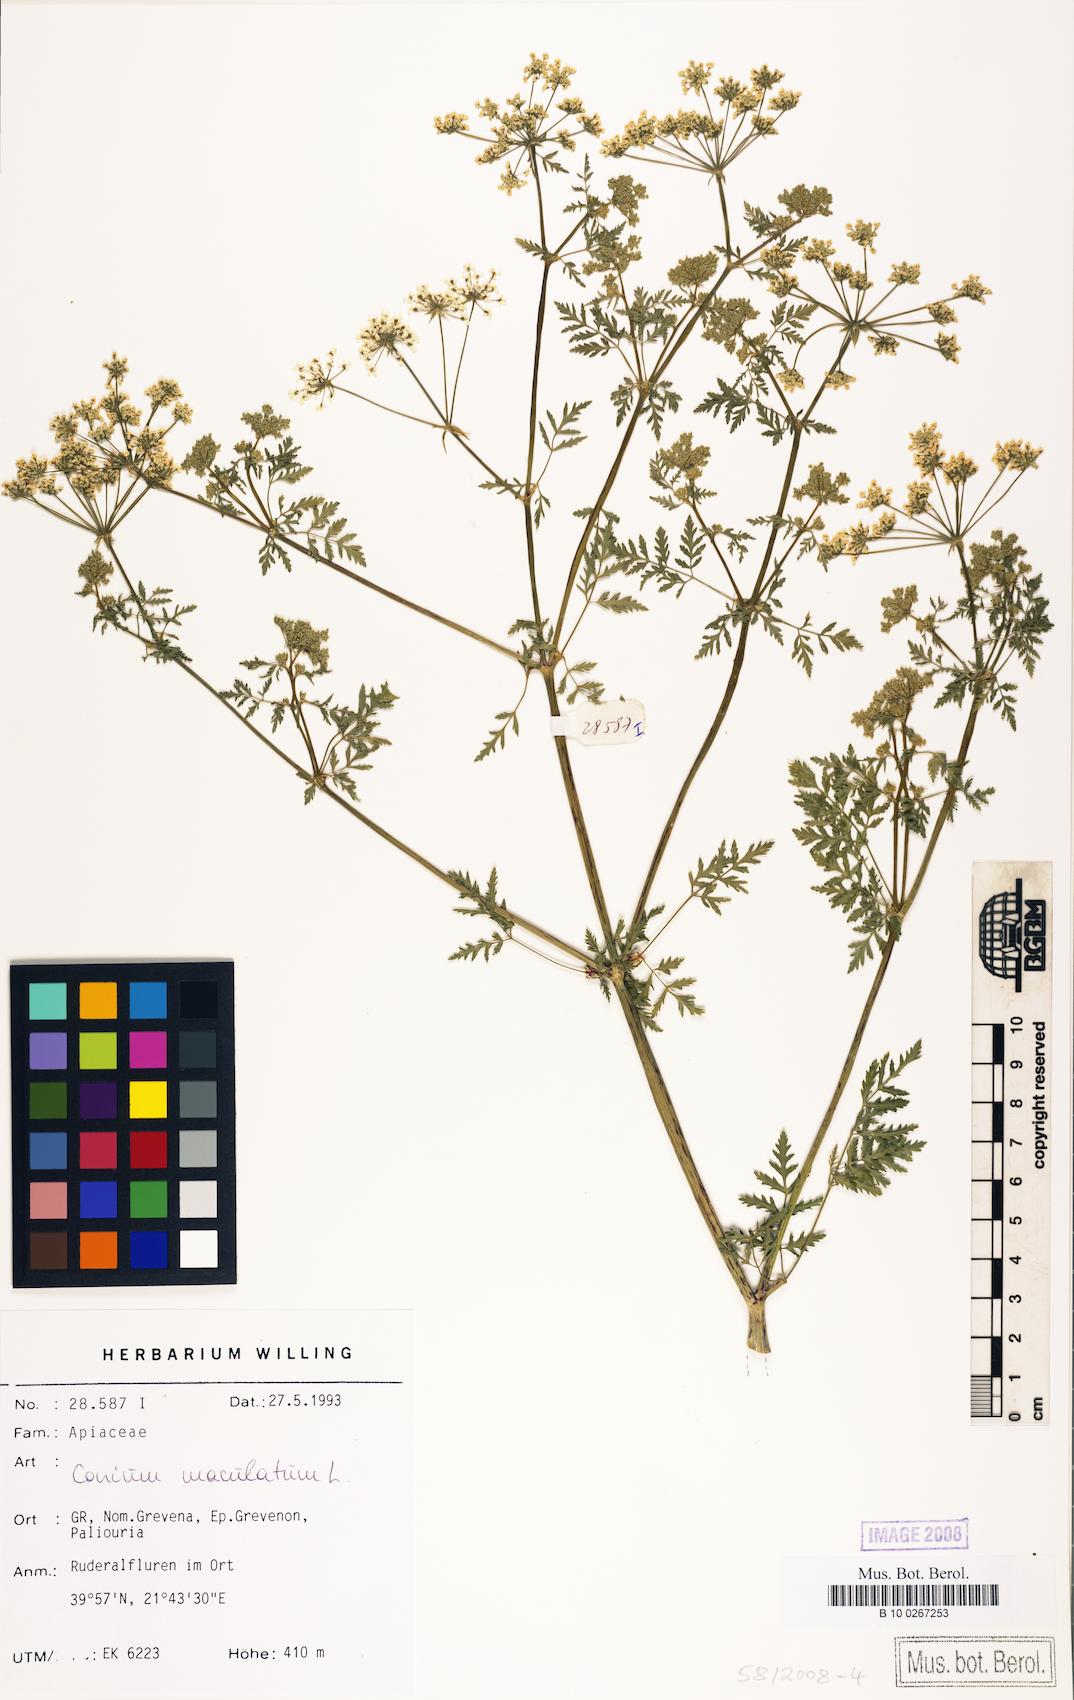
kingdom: Plantae
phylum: Tracheophyta
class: Magnoliopsida
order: Apiales
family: Apiaceae
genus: Conium
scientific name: Conium maculatum
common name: Hemlock
